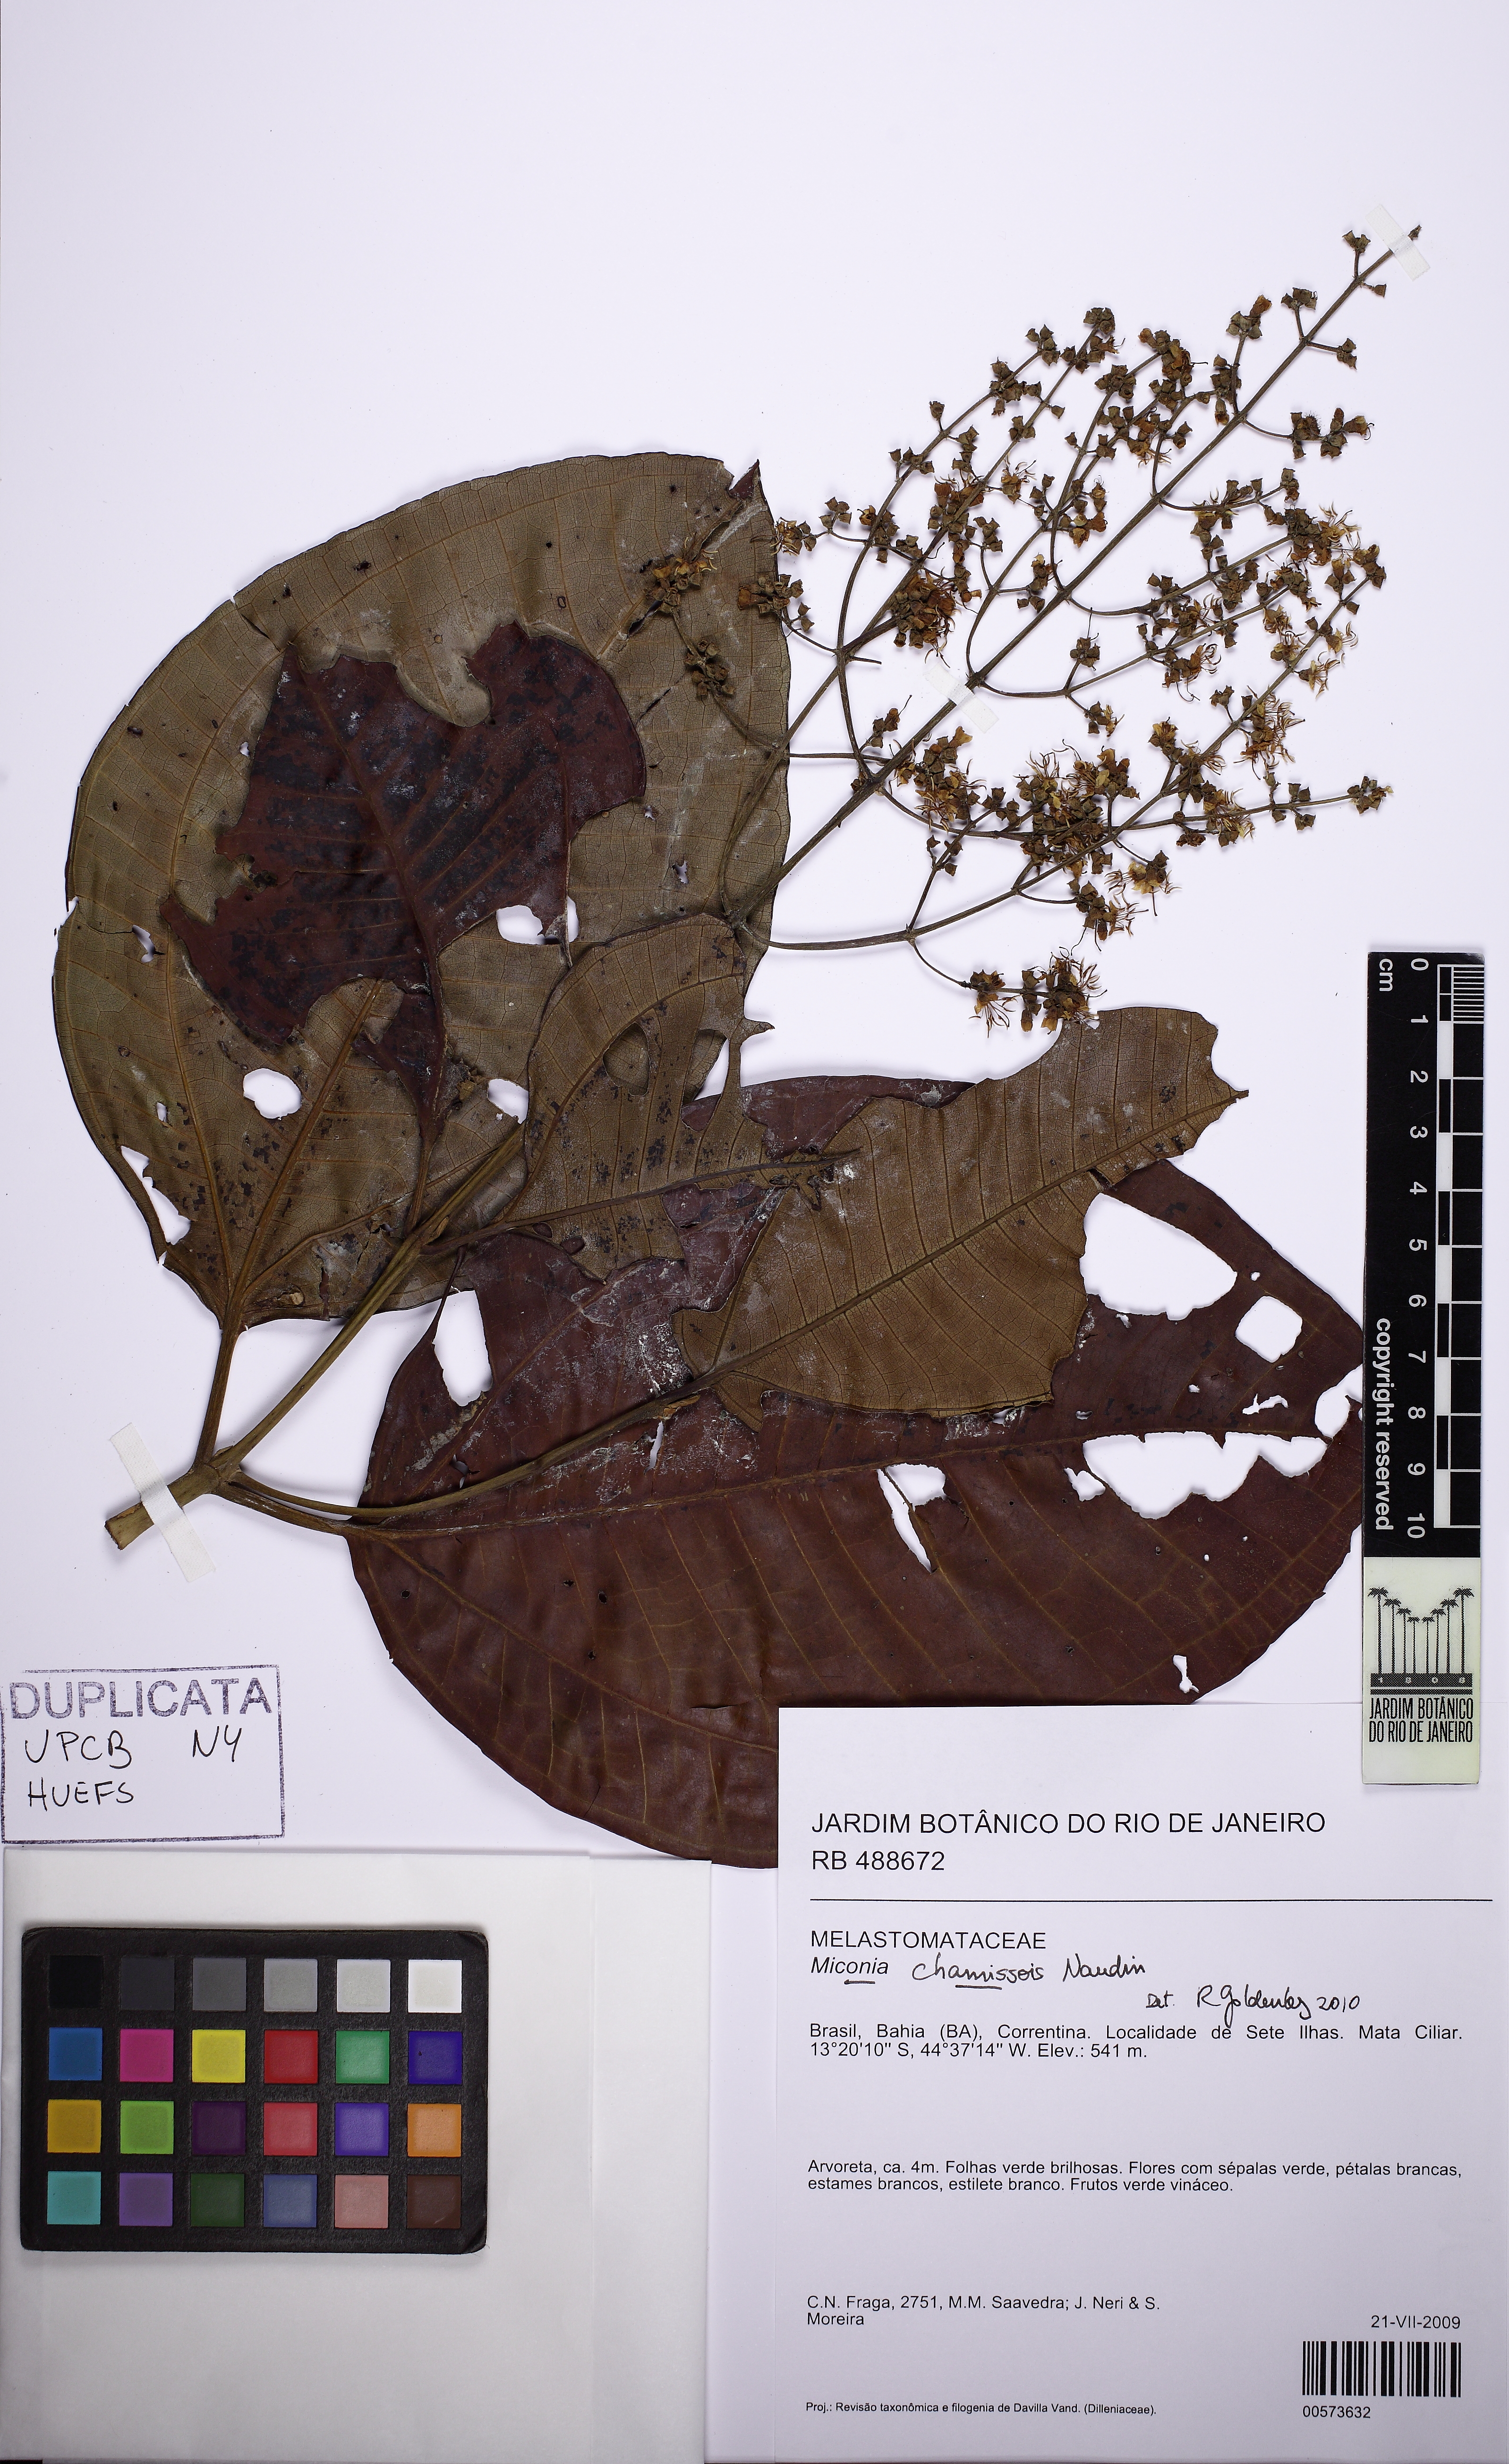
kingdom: Plantae
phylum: Tracheophyta
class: Magnoliopsida
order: Myrtales
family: Melastomataceae
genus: Miconia
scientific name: Miconia chamissois
